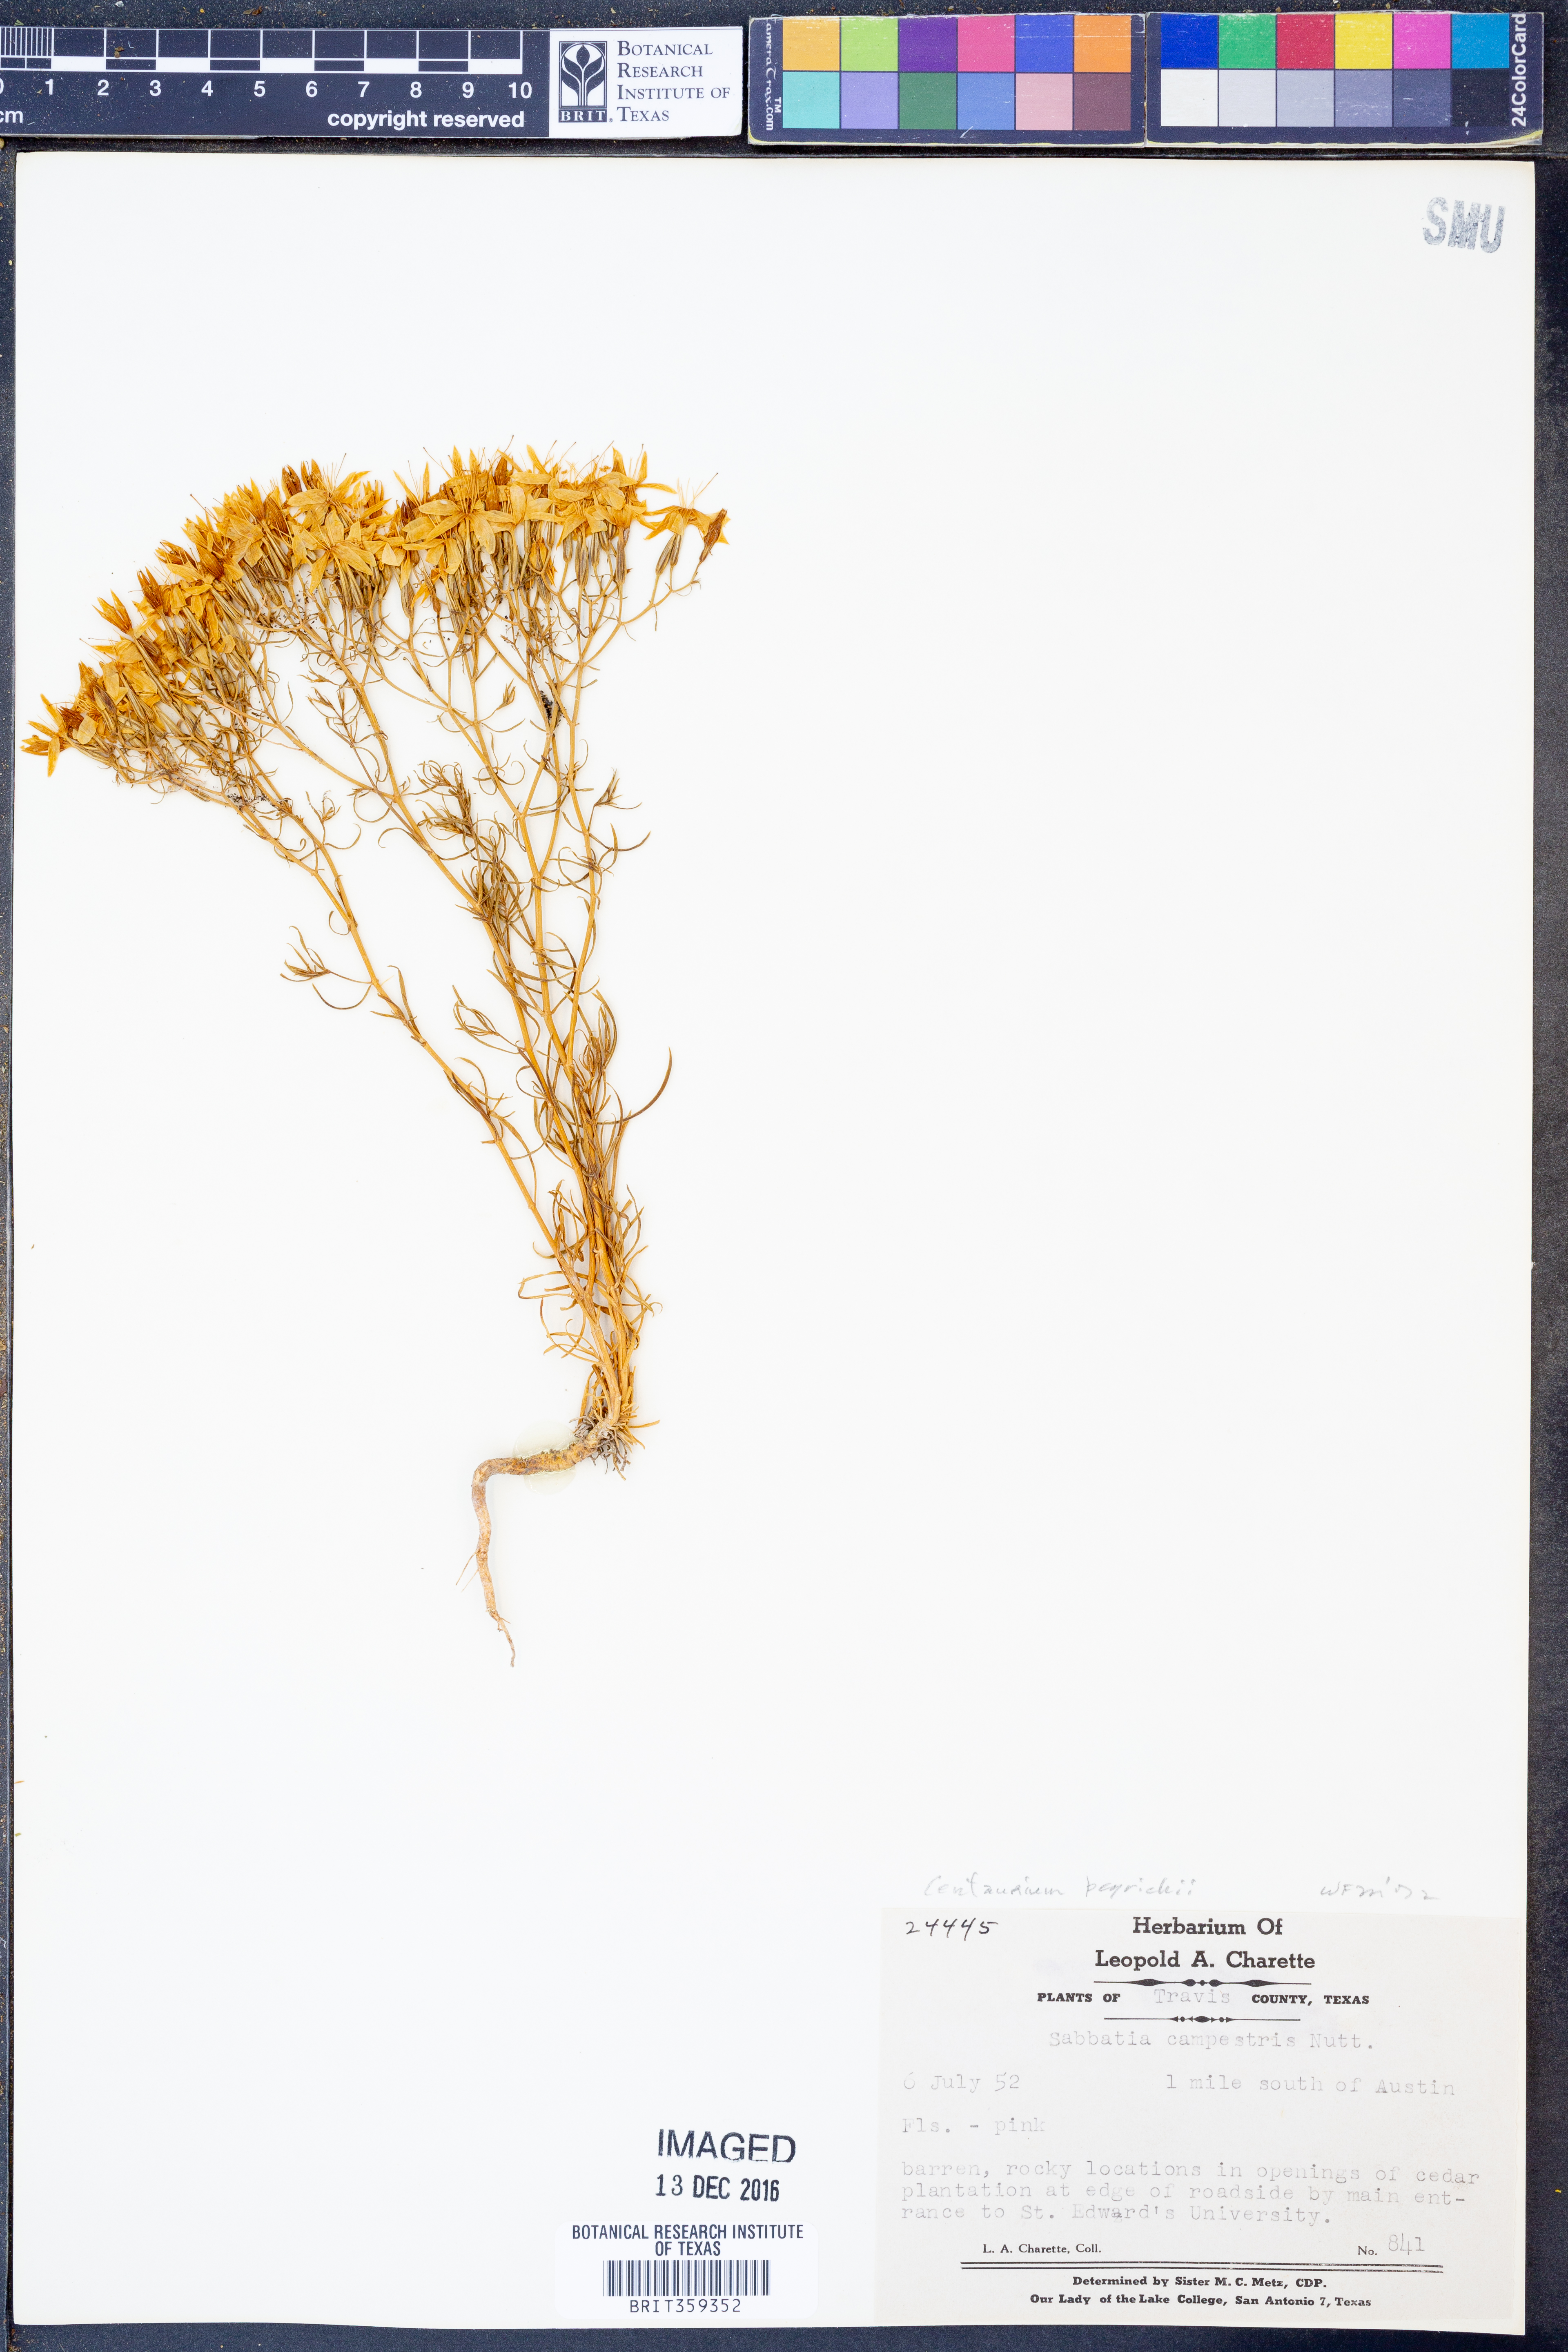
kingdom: Plantae
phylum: Tracheophyta
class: Magnoliopsida
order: Gentianales
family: Gentianaceae
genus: Zeltnera
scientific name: Zeltnera beyrichii
